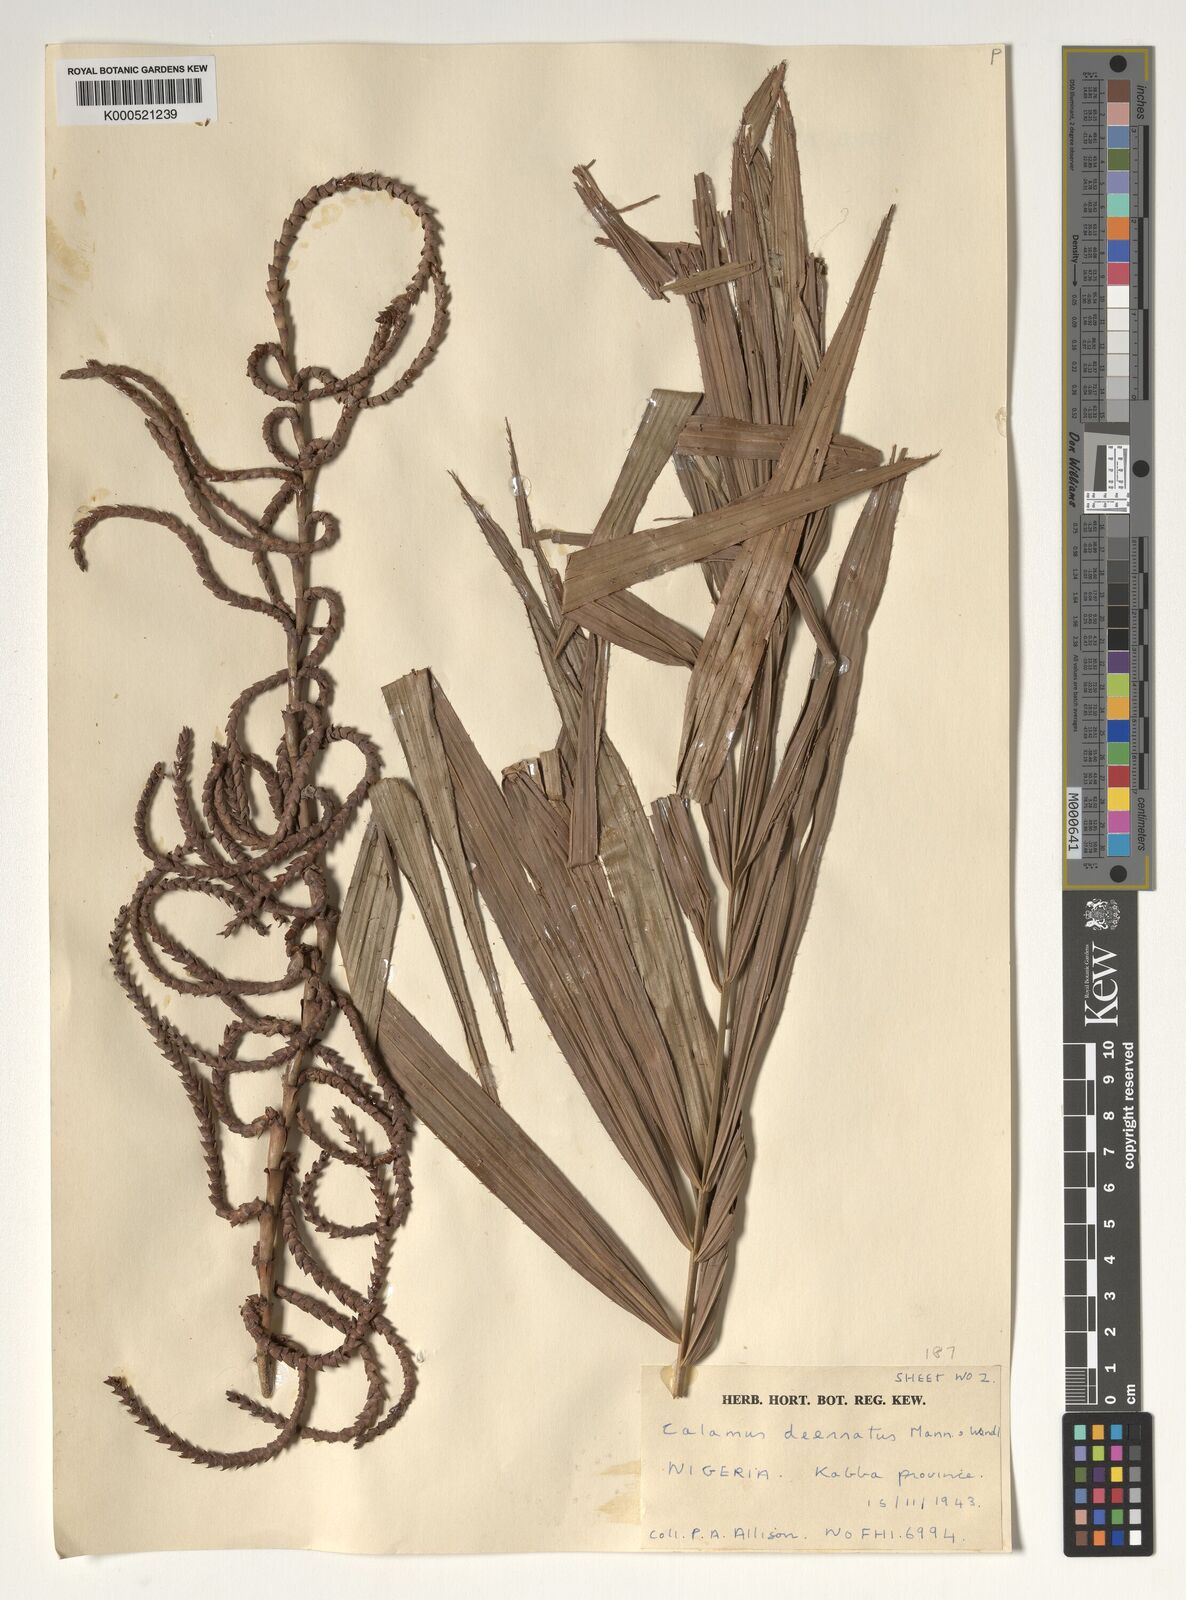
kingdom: Plantae
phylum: Tracheophyta
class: Liliopsida
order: Arecales
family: Arecaceae
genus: Calamus
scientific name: Calamus deerratus
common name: Rattan
